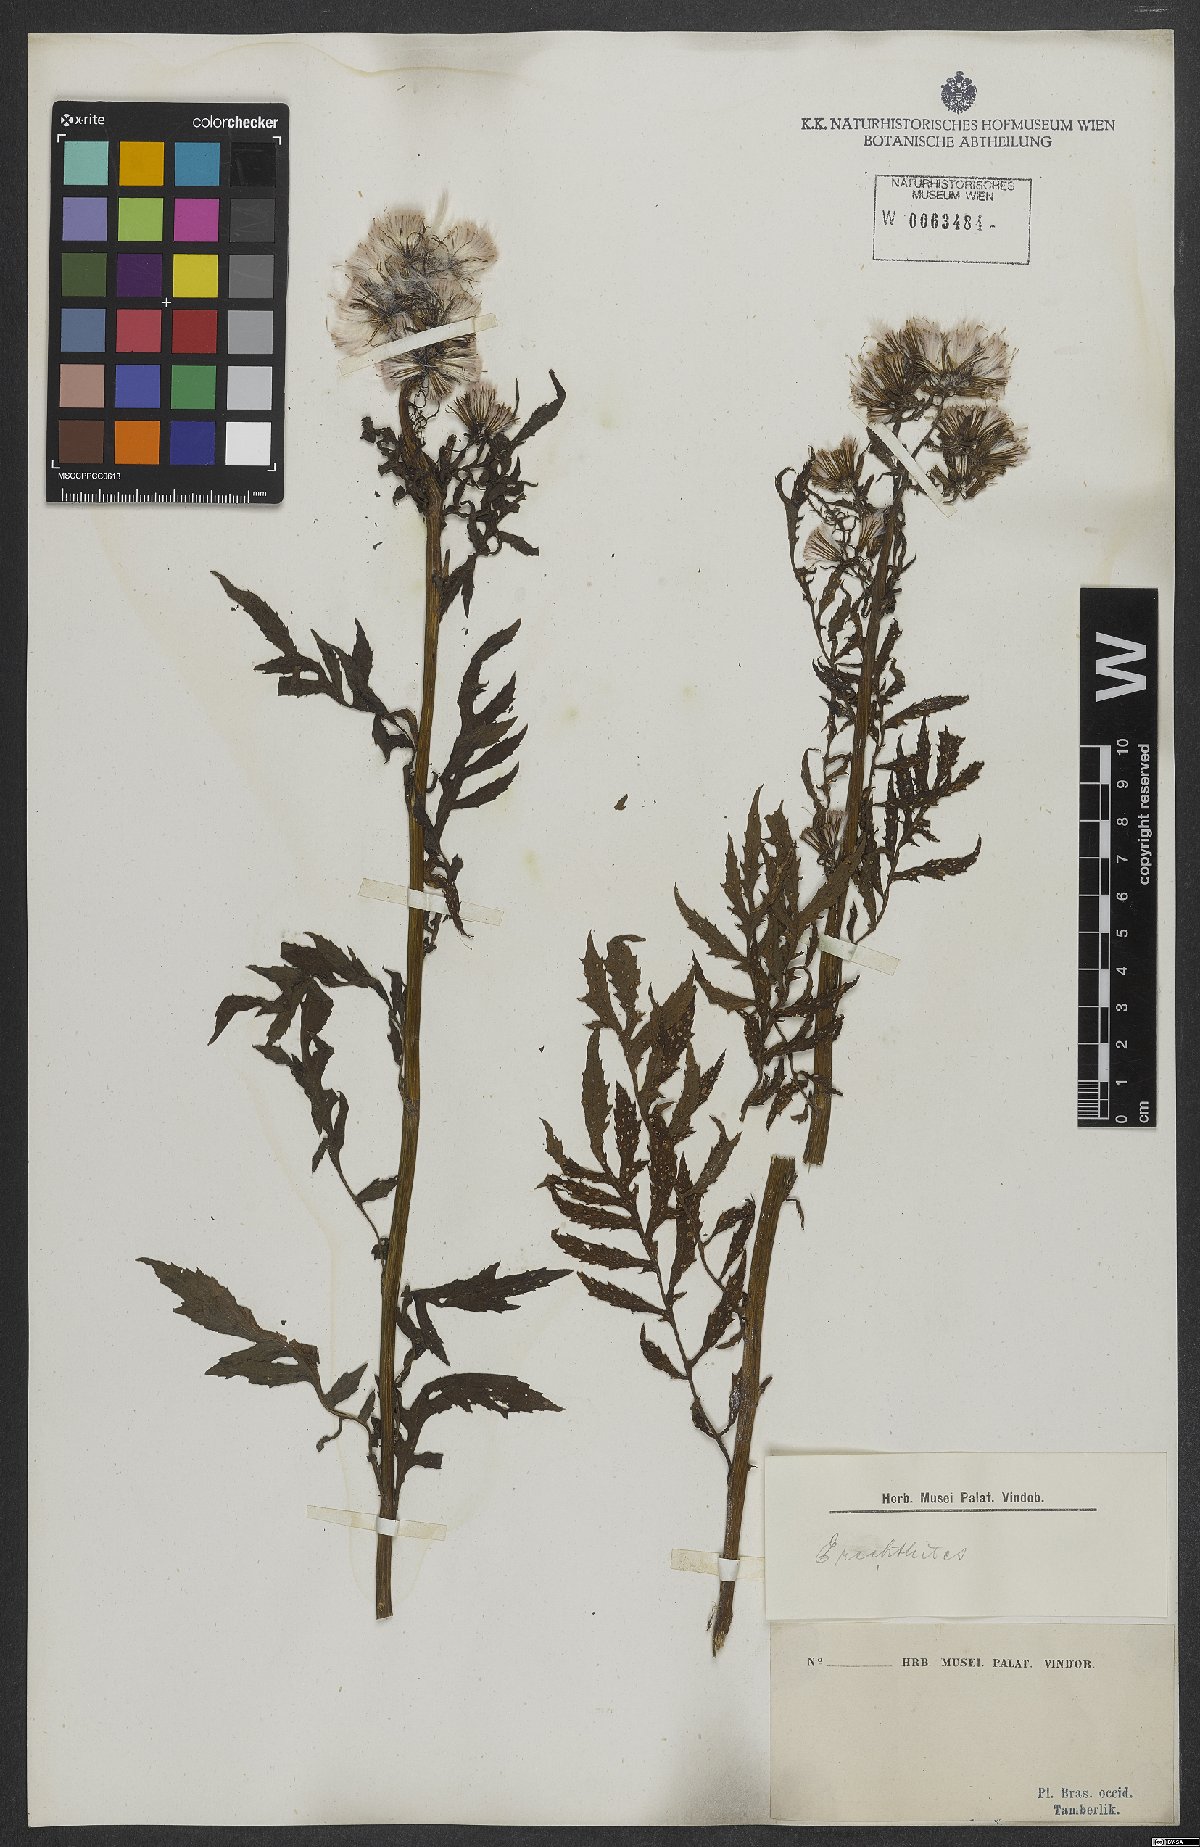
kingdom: Plantae
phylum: Tracheophyta
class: Magnoliopsida
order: Asterales
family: Asteraceae
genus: Porophyllum
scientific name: Porophyllum
